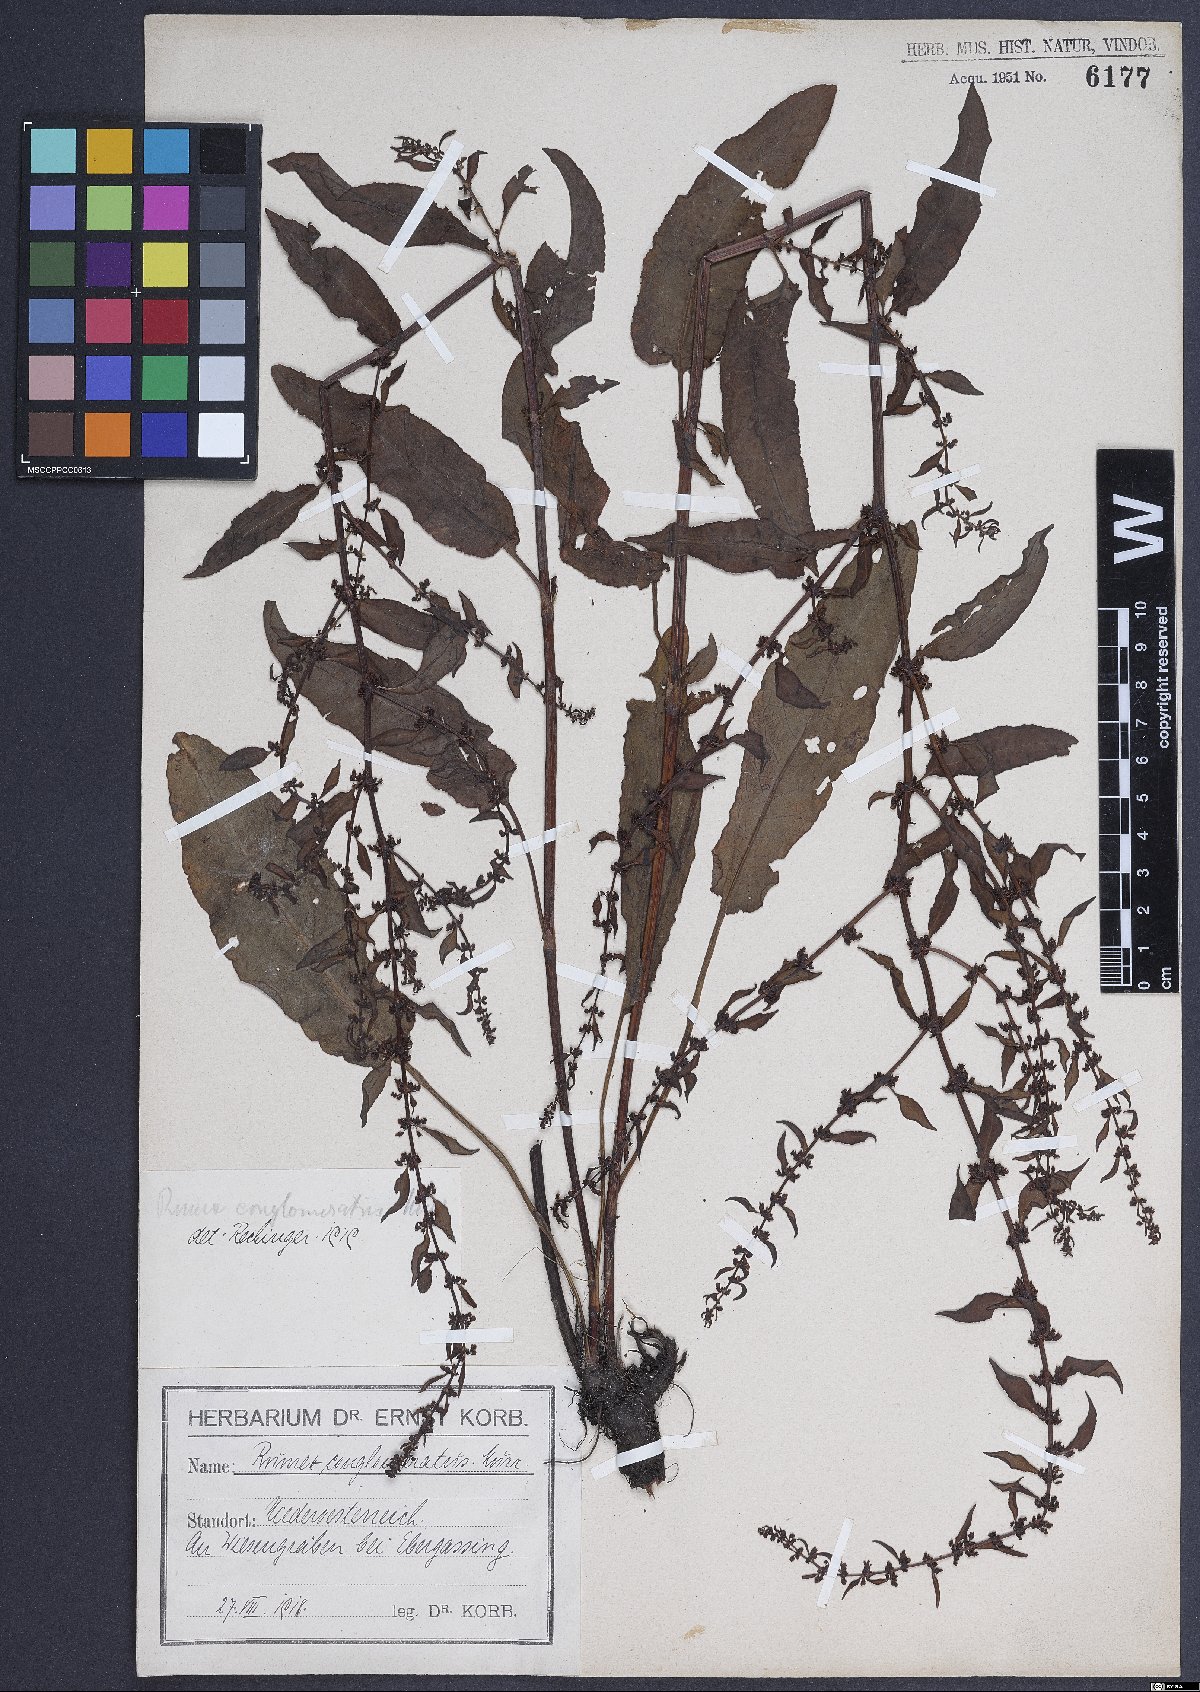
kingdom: Plantae
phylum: Tracheophyta
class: Magnoliopsida
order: Caryophyllales
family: Polygonaceae
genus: Rumex
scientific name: Rumex conglomeratus
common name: Clustered dock
